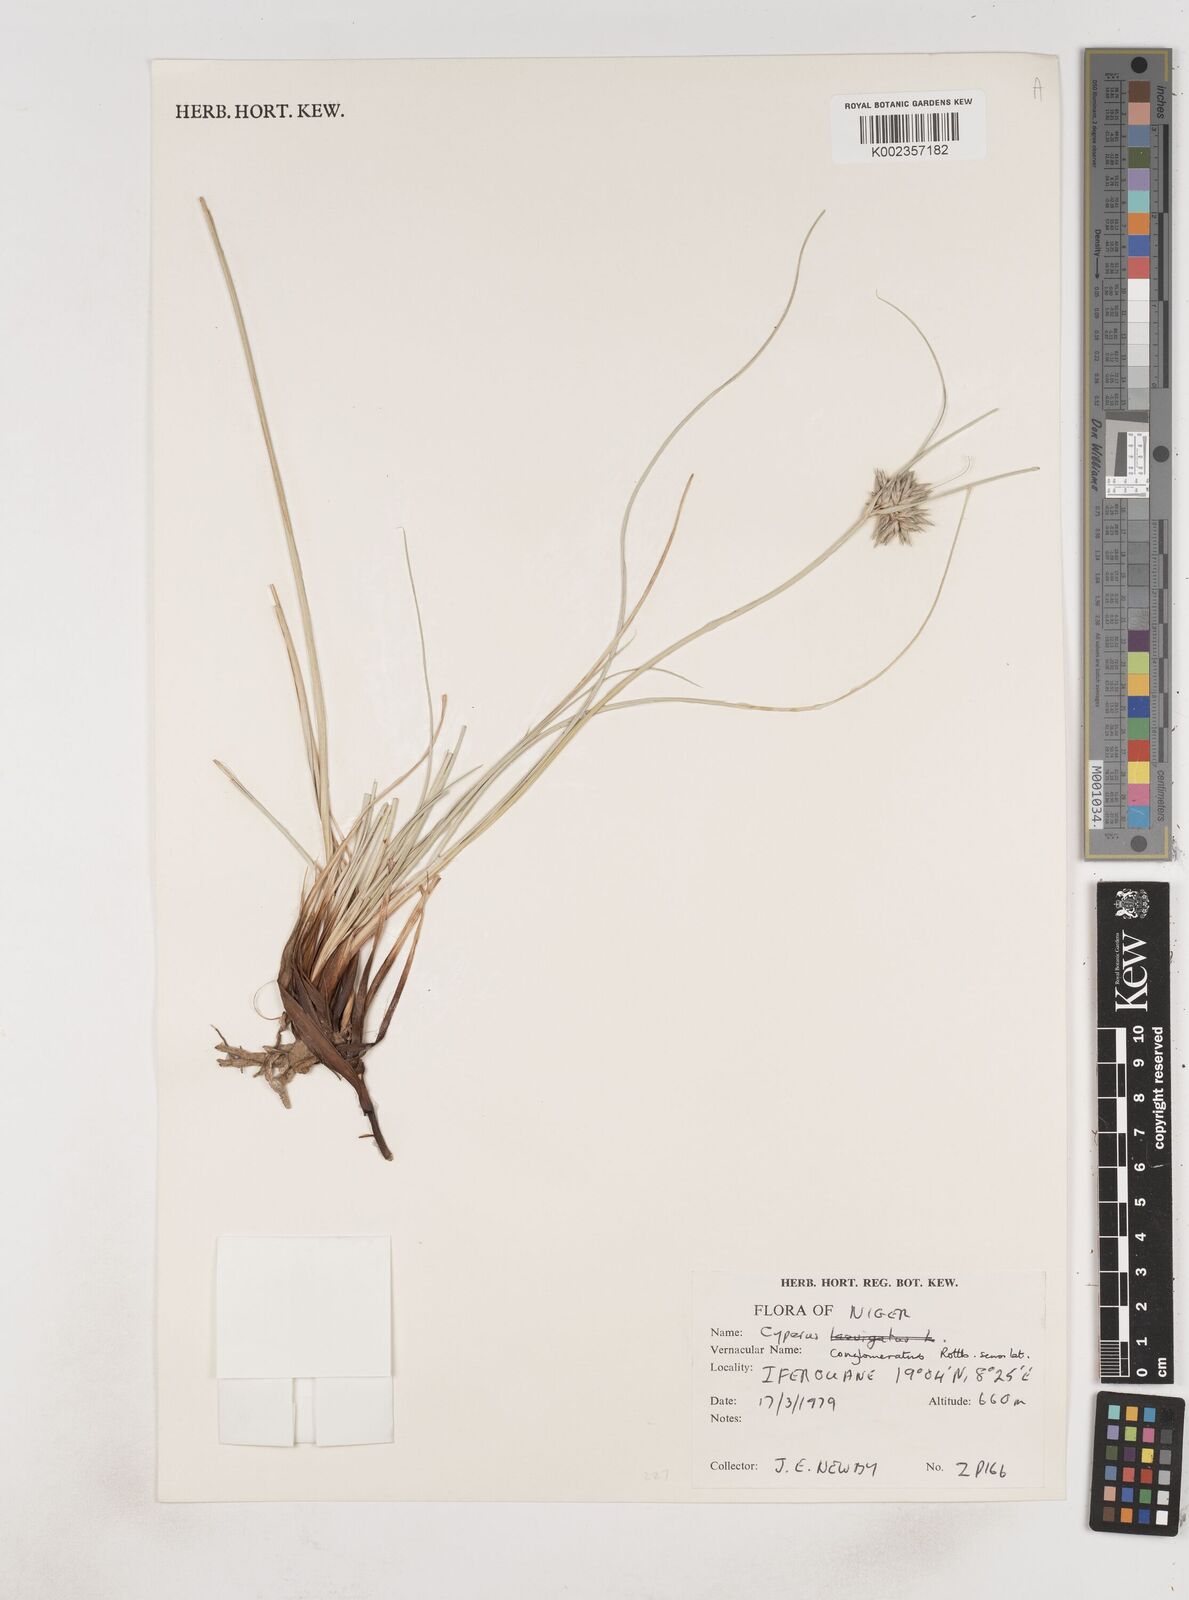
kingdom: Plantae
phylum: Tracheophyta
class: Liliopsida
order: Poales
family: Cyperaceae
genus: Cyperus
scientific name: Cyperus conglomeratus
